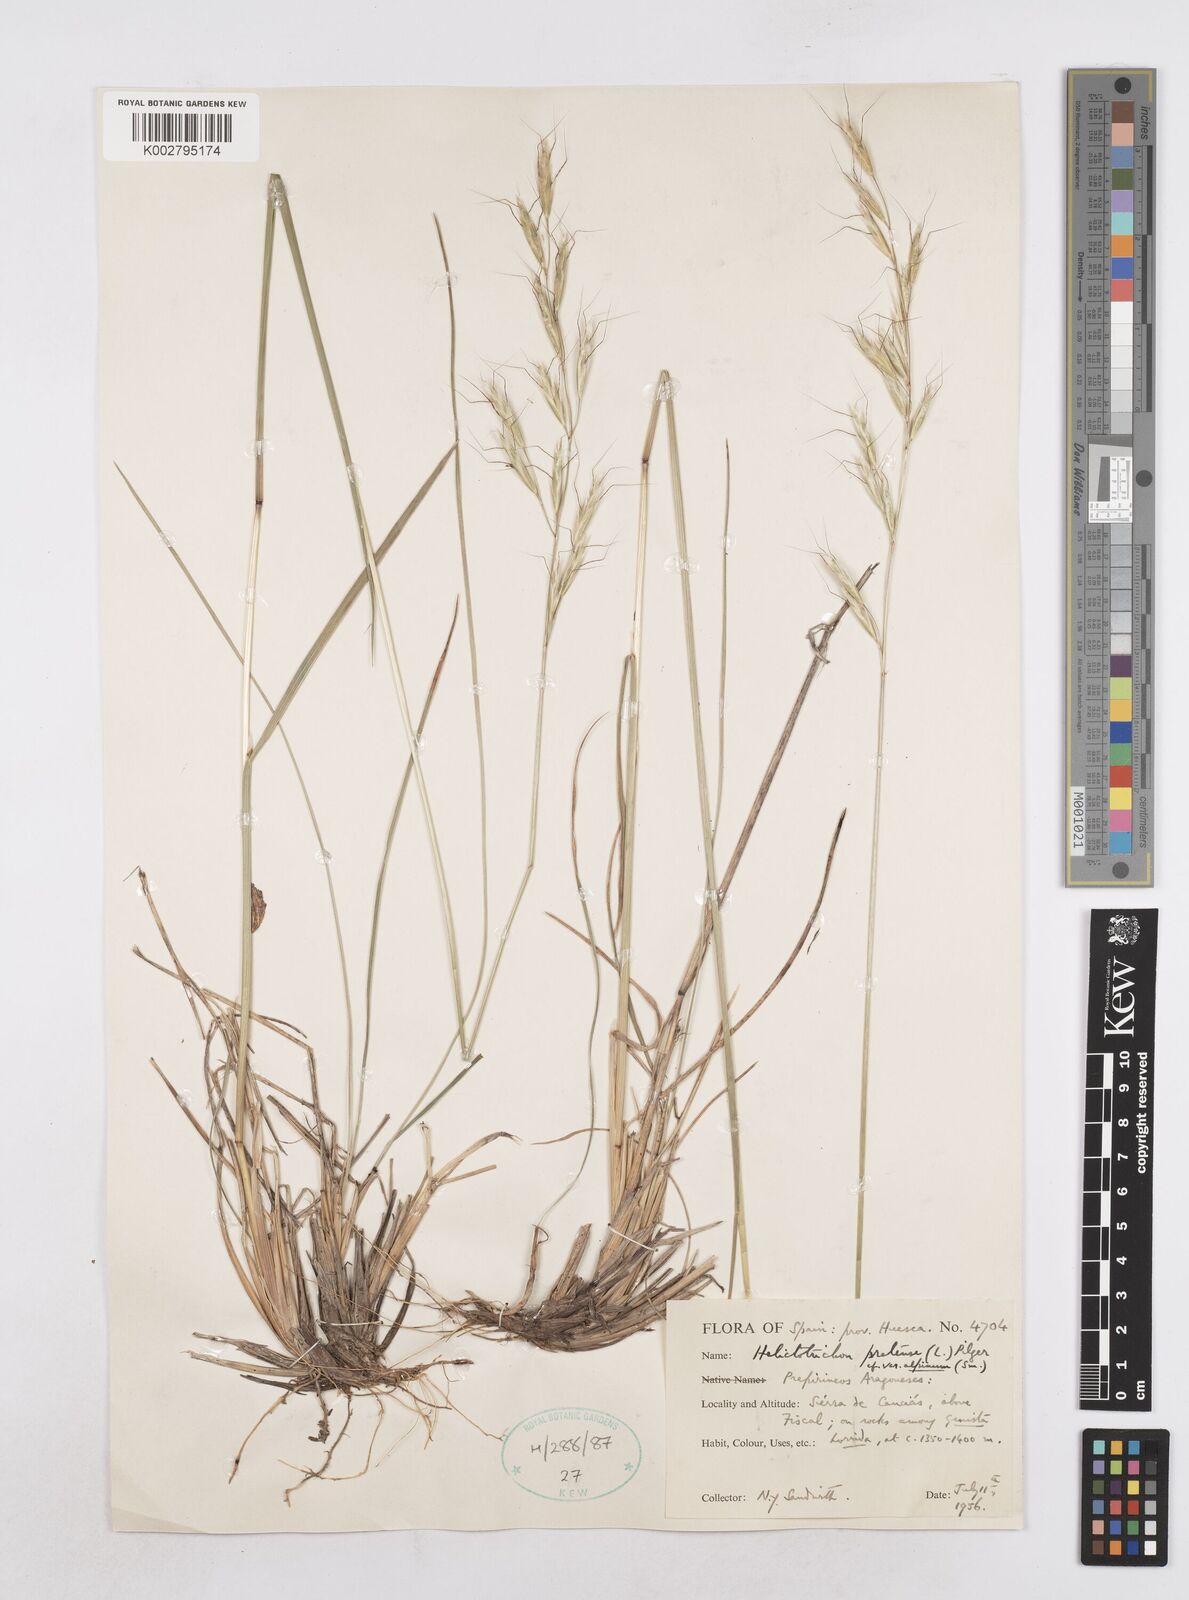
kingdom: Plantae
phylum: Tracheophyta
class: Liliopsida
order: Poales
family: Poaceae
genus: Helictochloa
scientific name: Helictochloa pratensis
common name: Meadow oat grass
